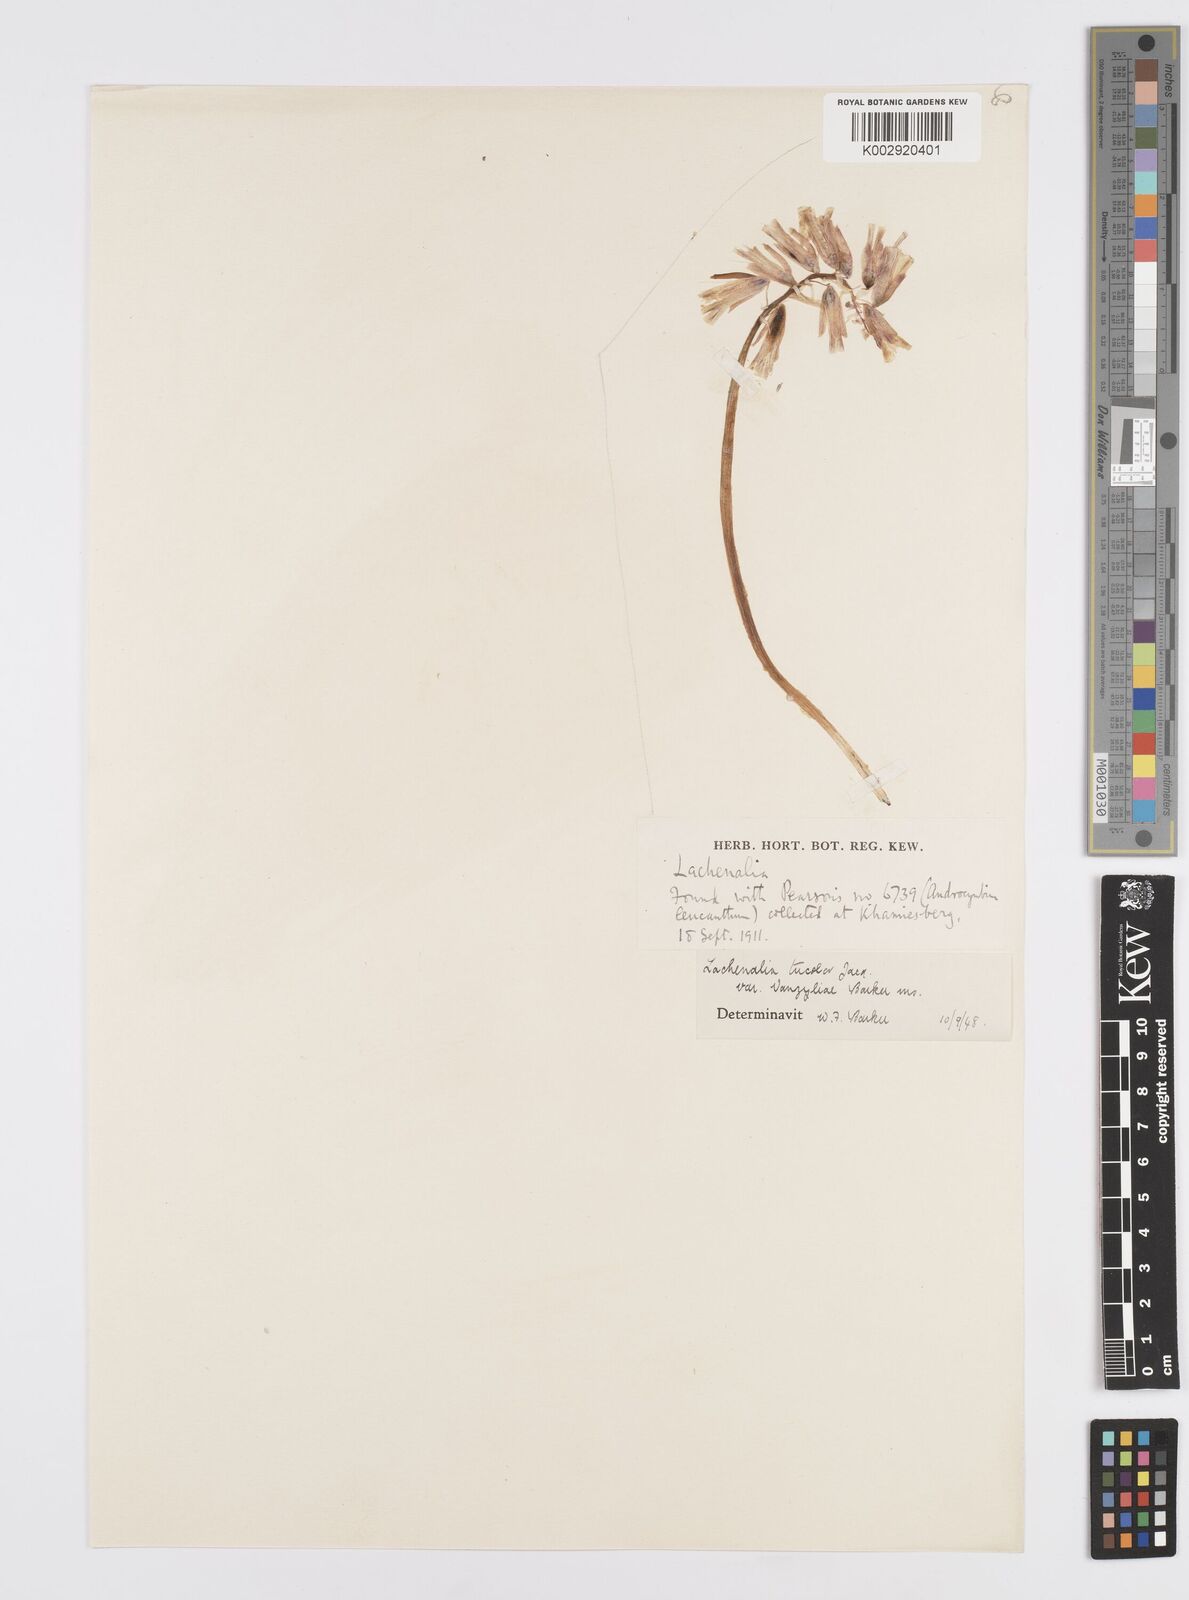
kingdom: Plantae
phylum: Tracheophyta
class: Liliopsida
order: Asparagales
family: Asparagaceae
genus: Lachenalia
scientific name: Lachenalia
